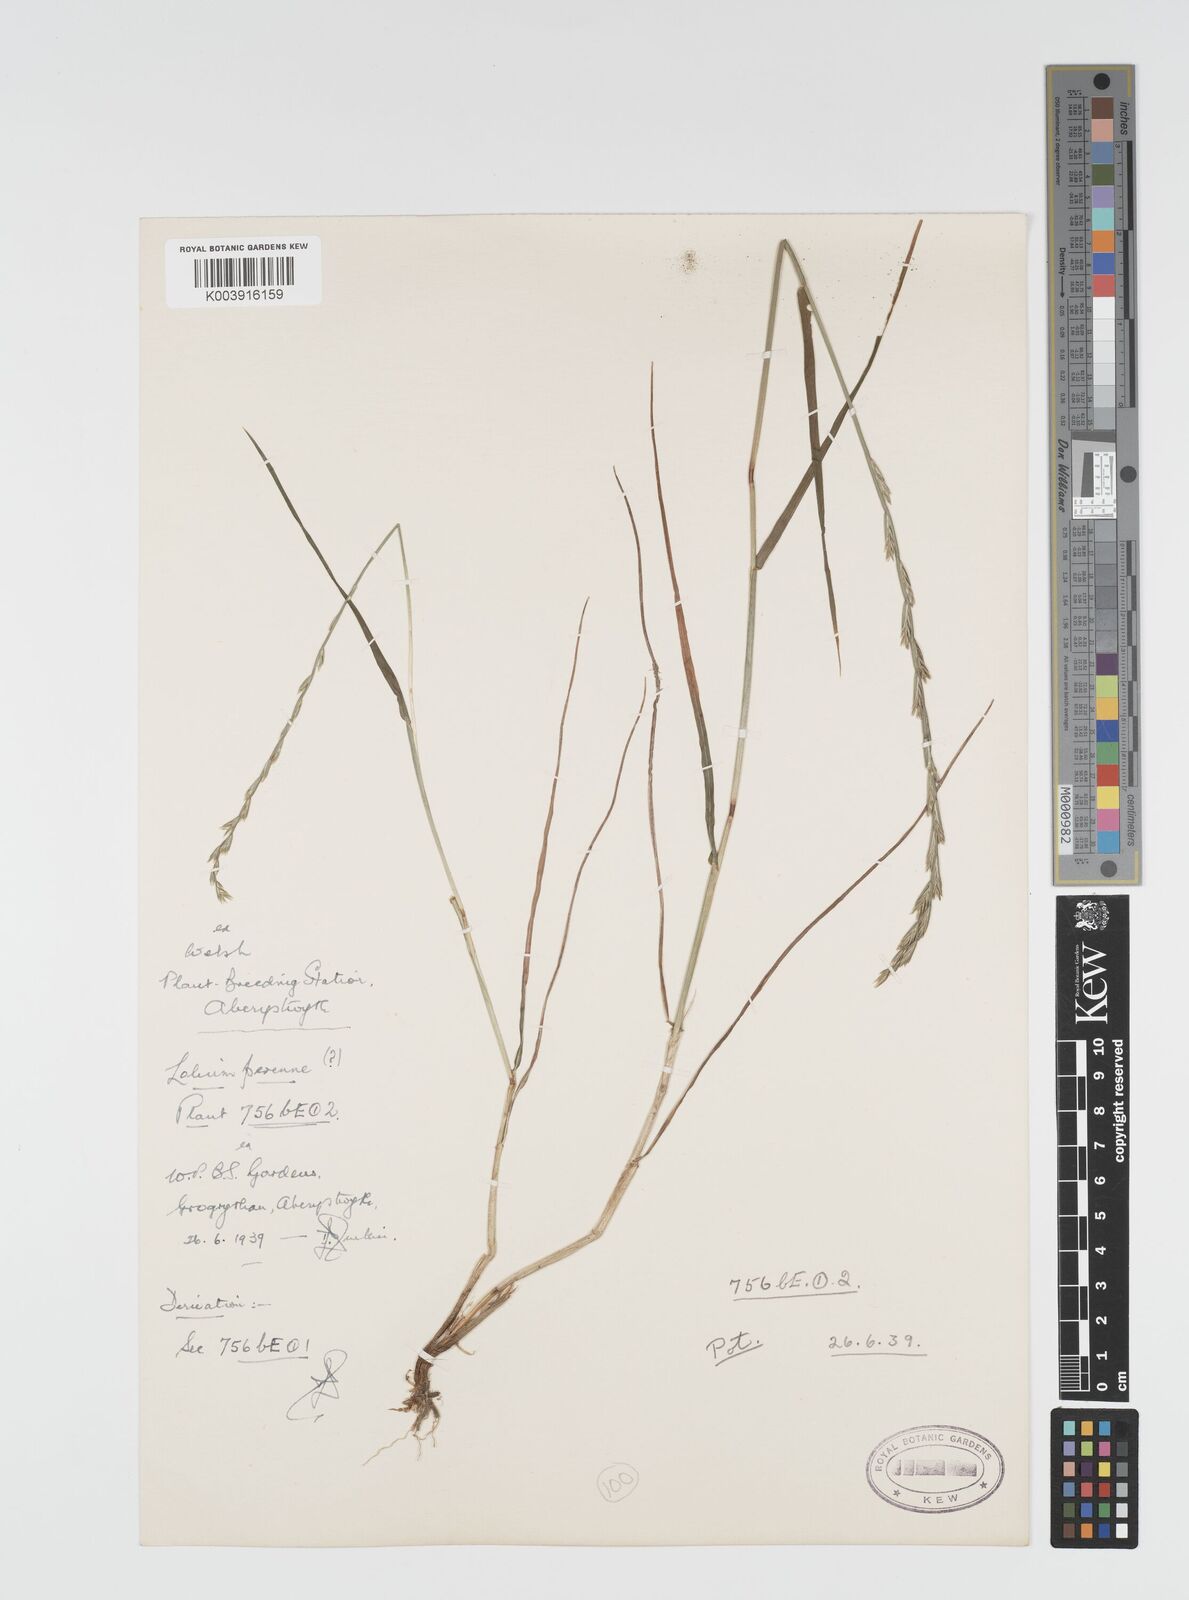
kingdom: Plantae
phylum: Tracheophyta
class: Liliopsida
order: Poales
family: Poaceae
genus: Lolium
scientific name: Lolium rigidum
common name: Wimmera ryegrass
